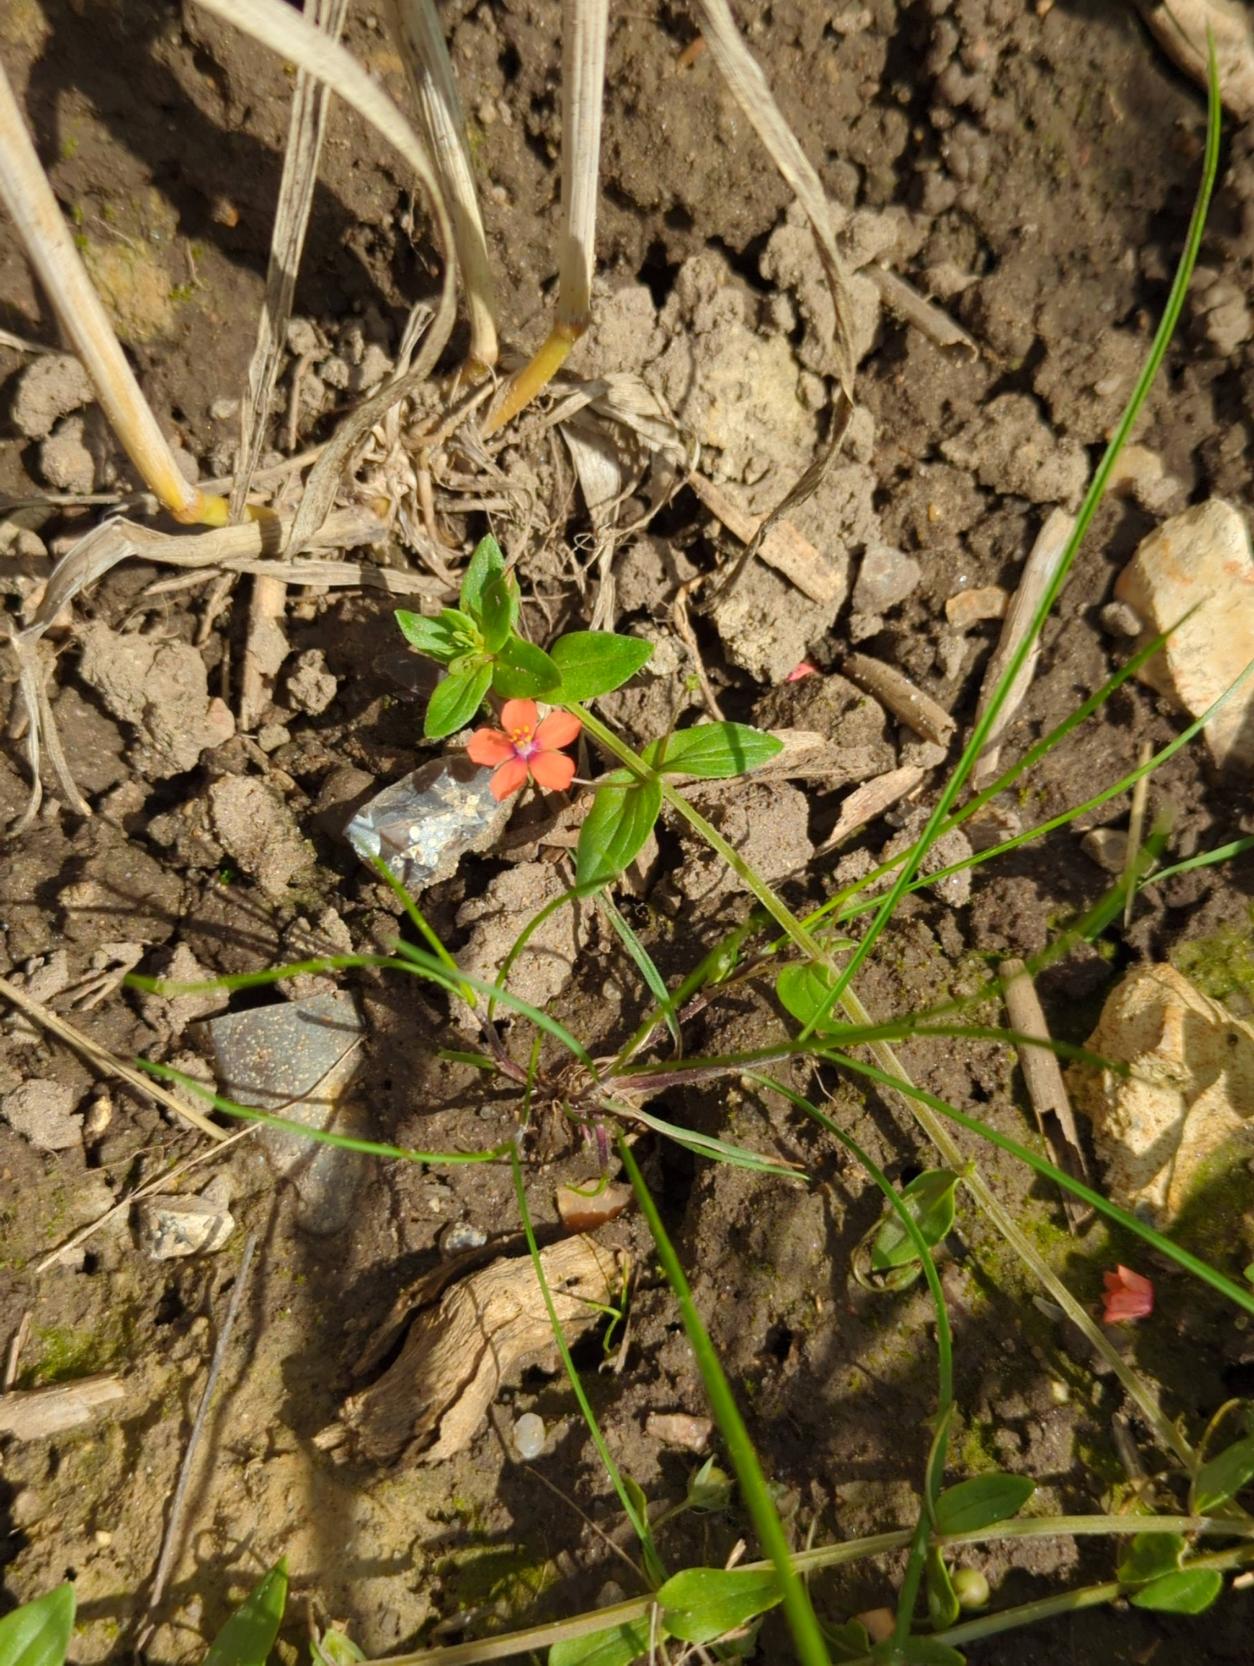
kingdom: Plantae
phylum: Tracheophyta
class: Magnoliopsida
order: Ericales
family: Primulaceae
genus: Lysimachia
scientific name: Lysimachia arvensis
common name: Rød arve
